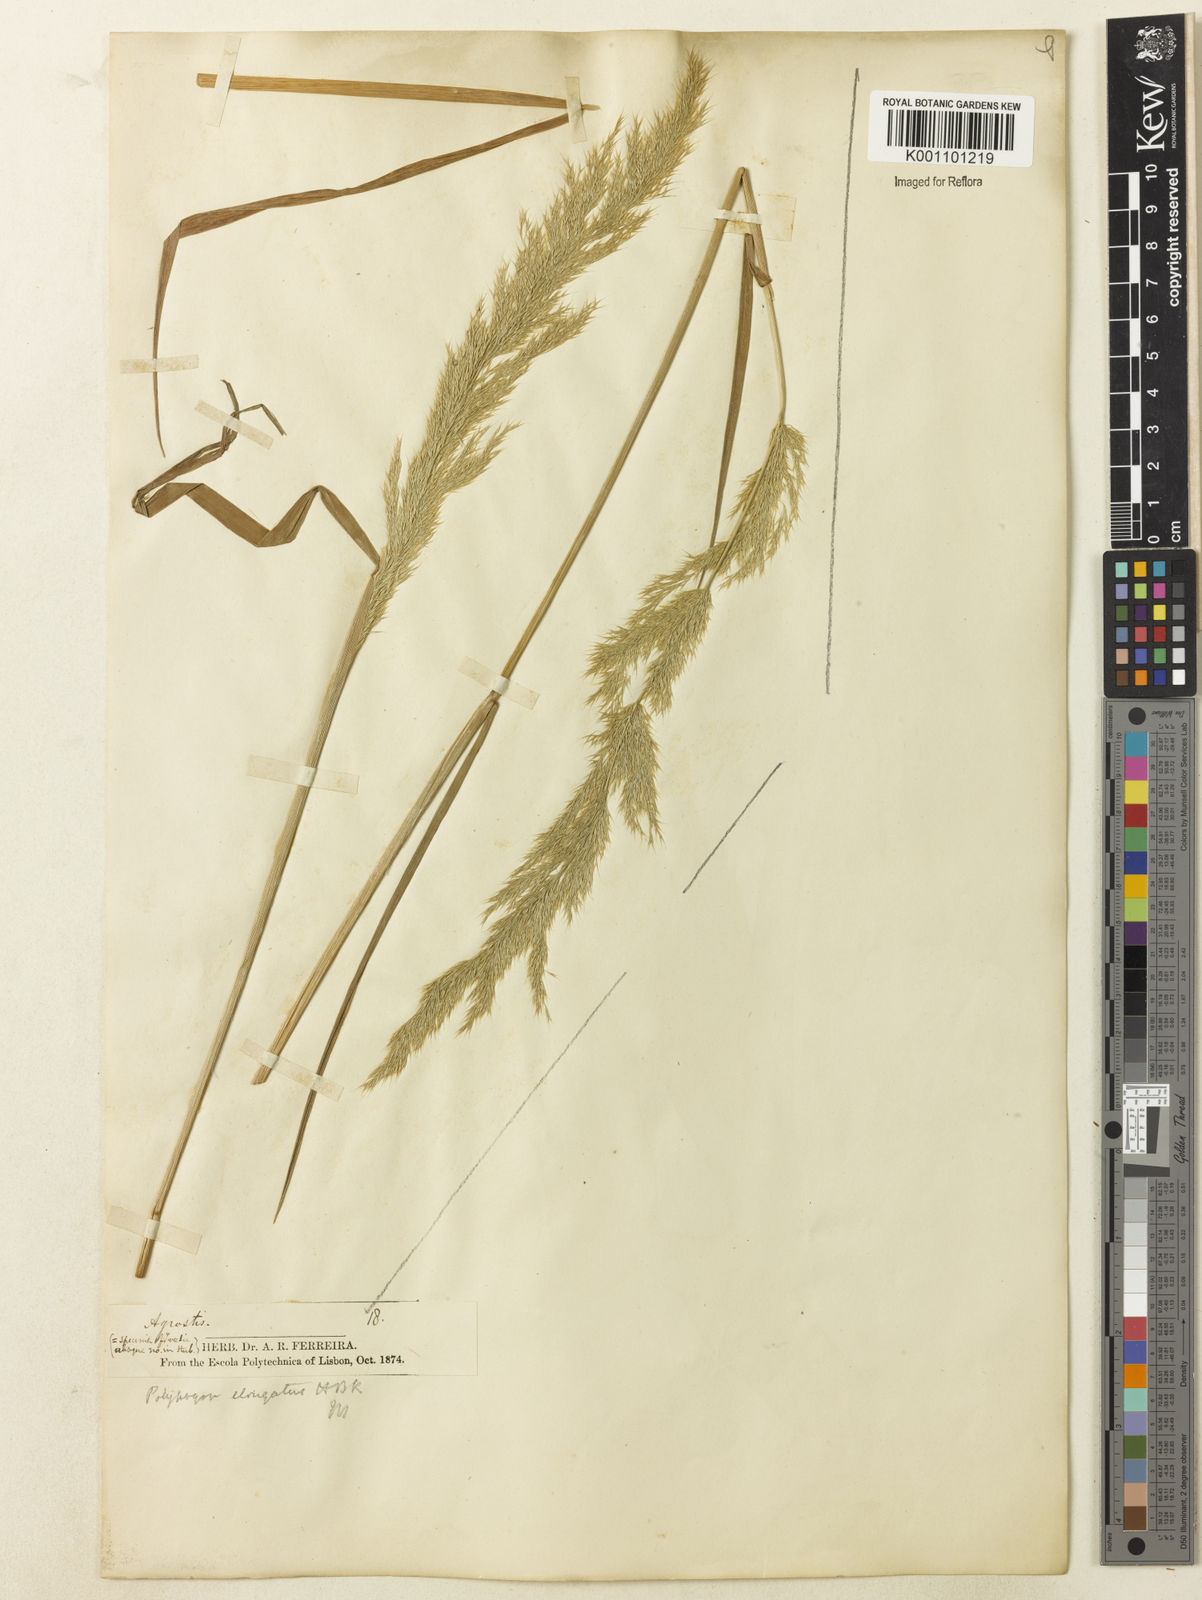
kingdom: Plantae
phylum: Tracheophyta
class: Liliopsida
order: Poales
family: Poaceae
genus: Polypogon
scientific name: Polypogon elongatus
